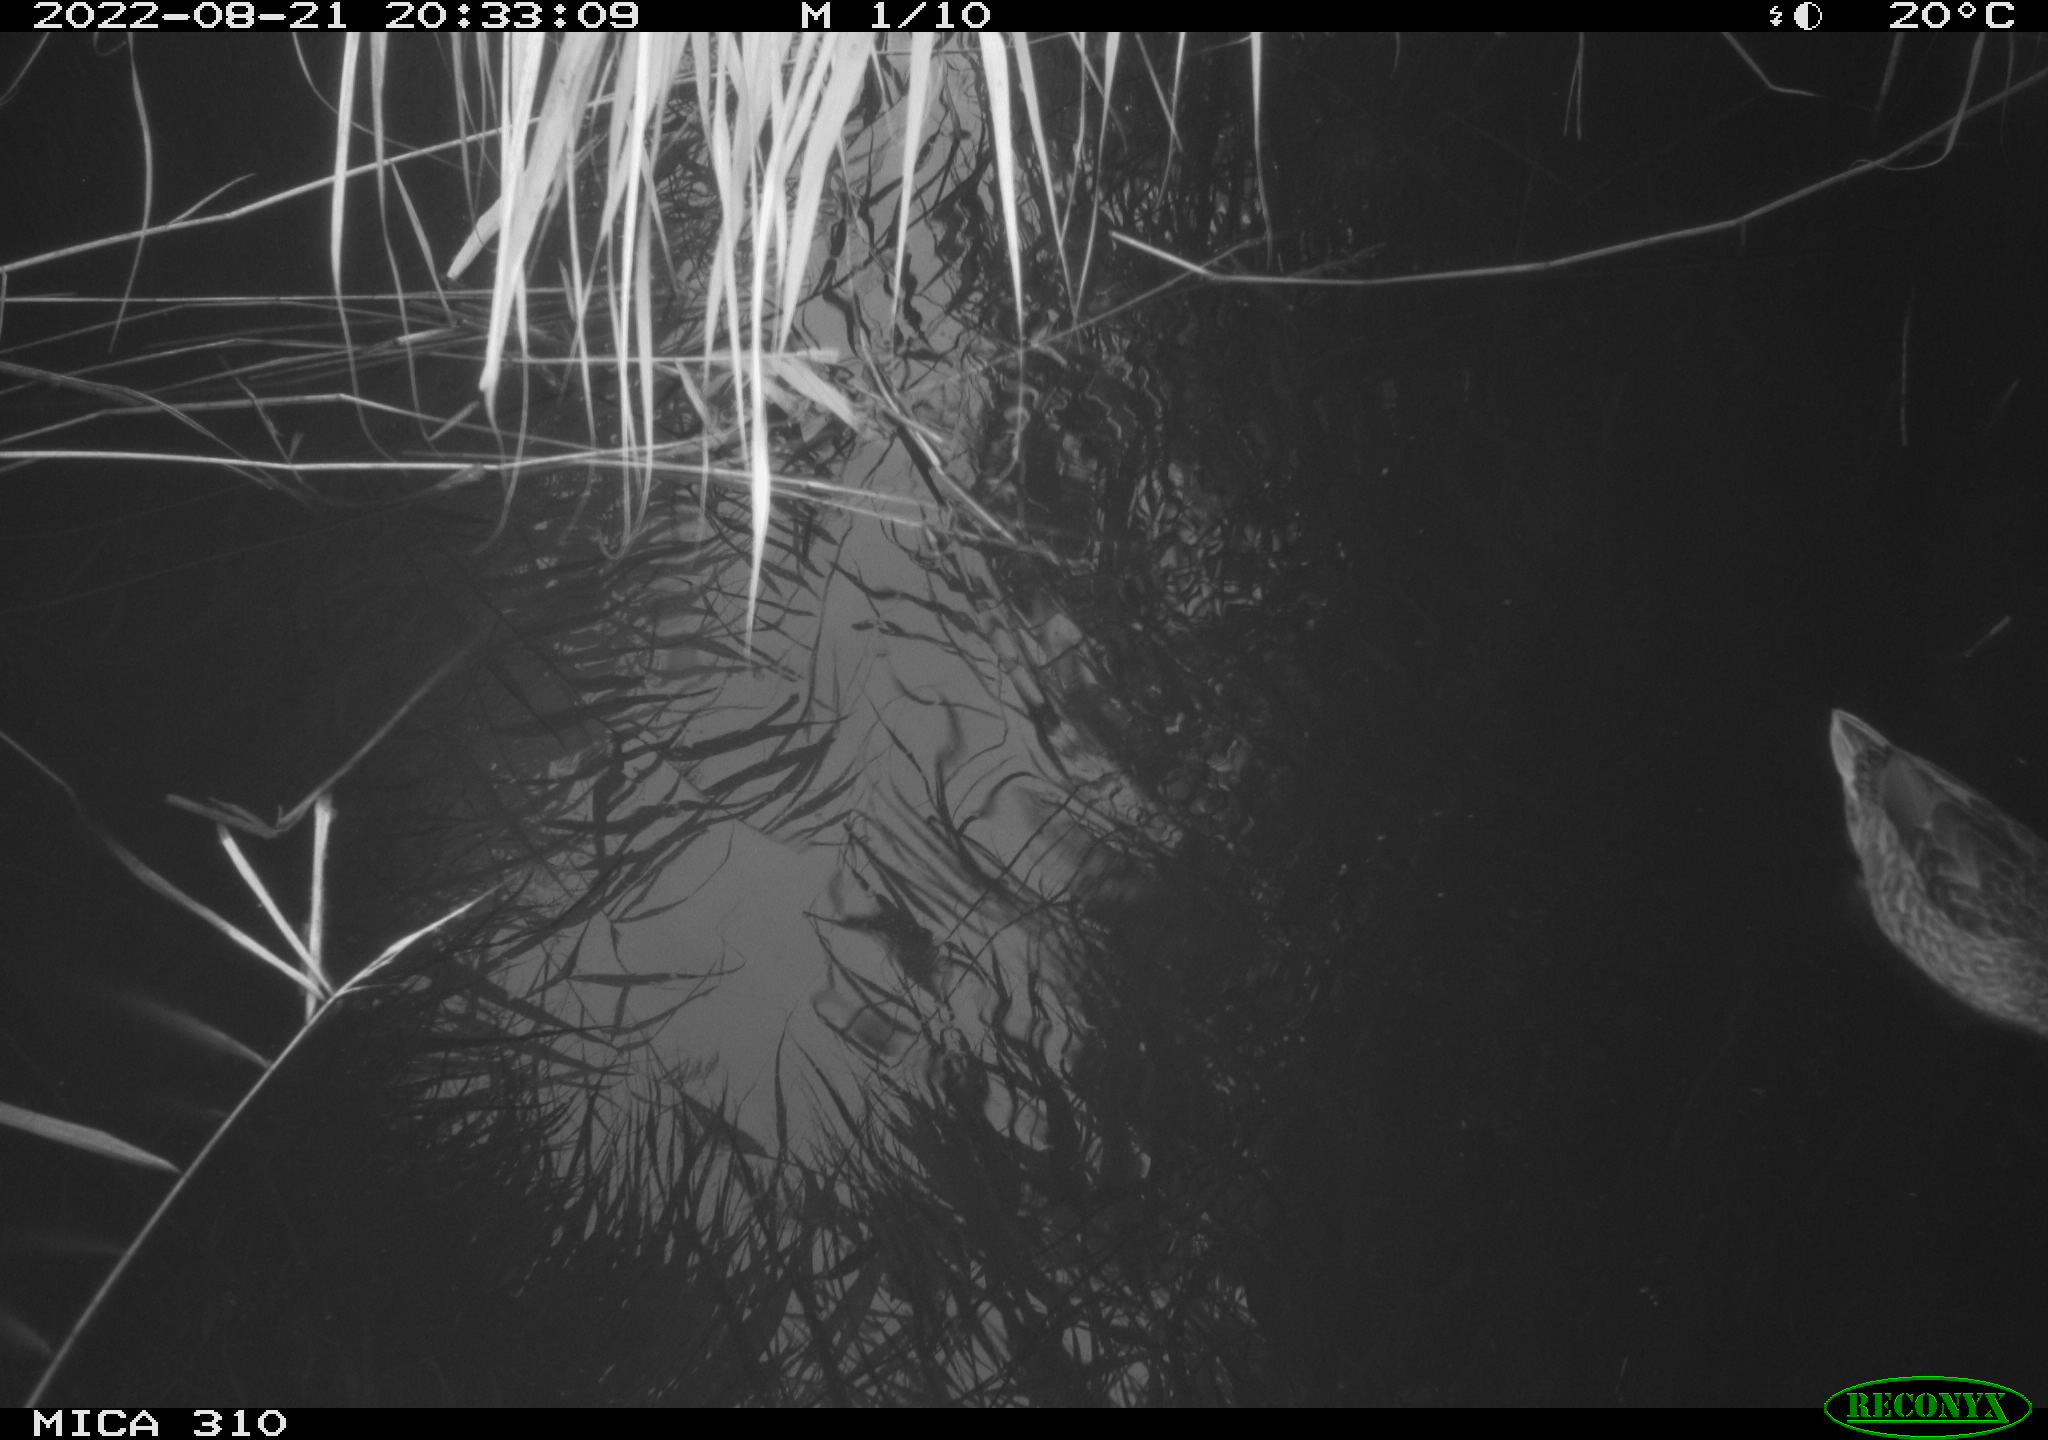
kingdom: Animalia
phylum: Chordata
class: Aves
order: Anseriformes
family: Anatidae
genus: Anas
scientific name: Anas platyrhynchos
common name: Mallard
